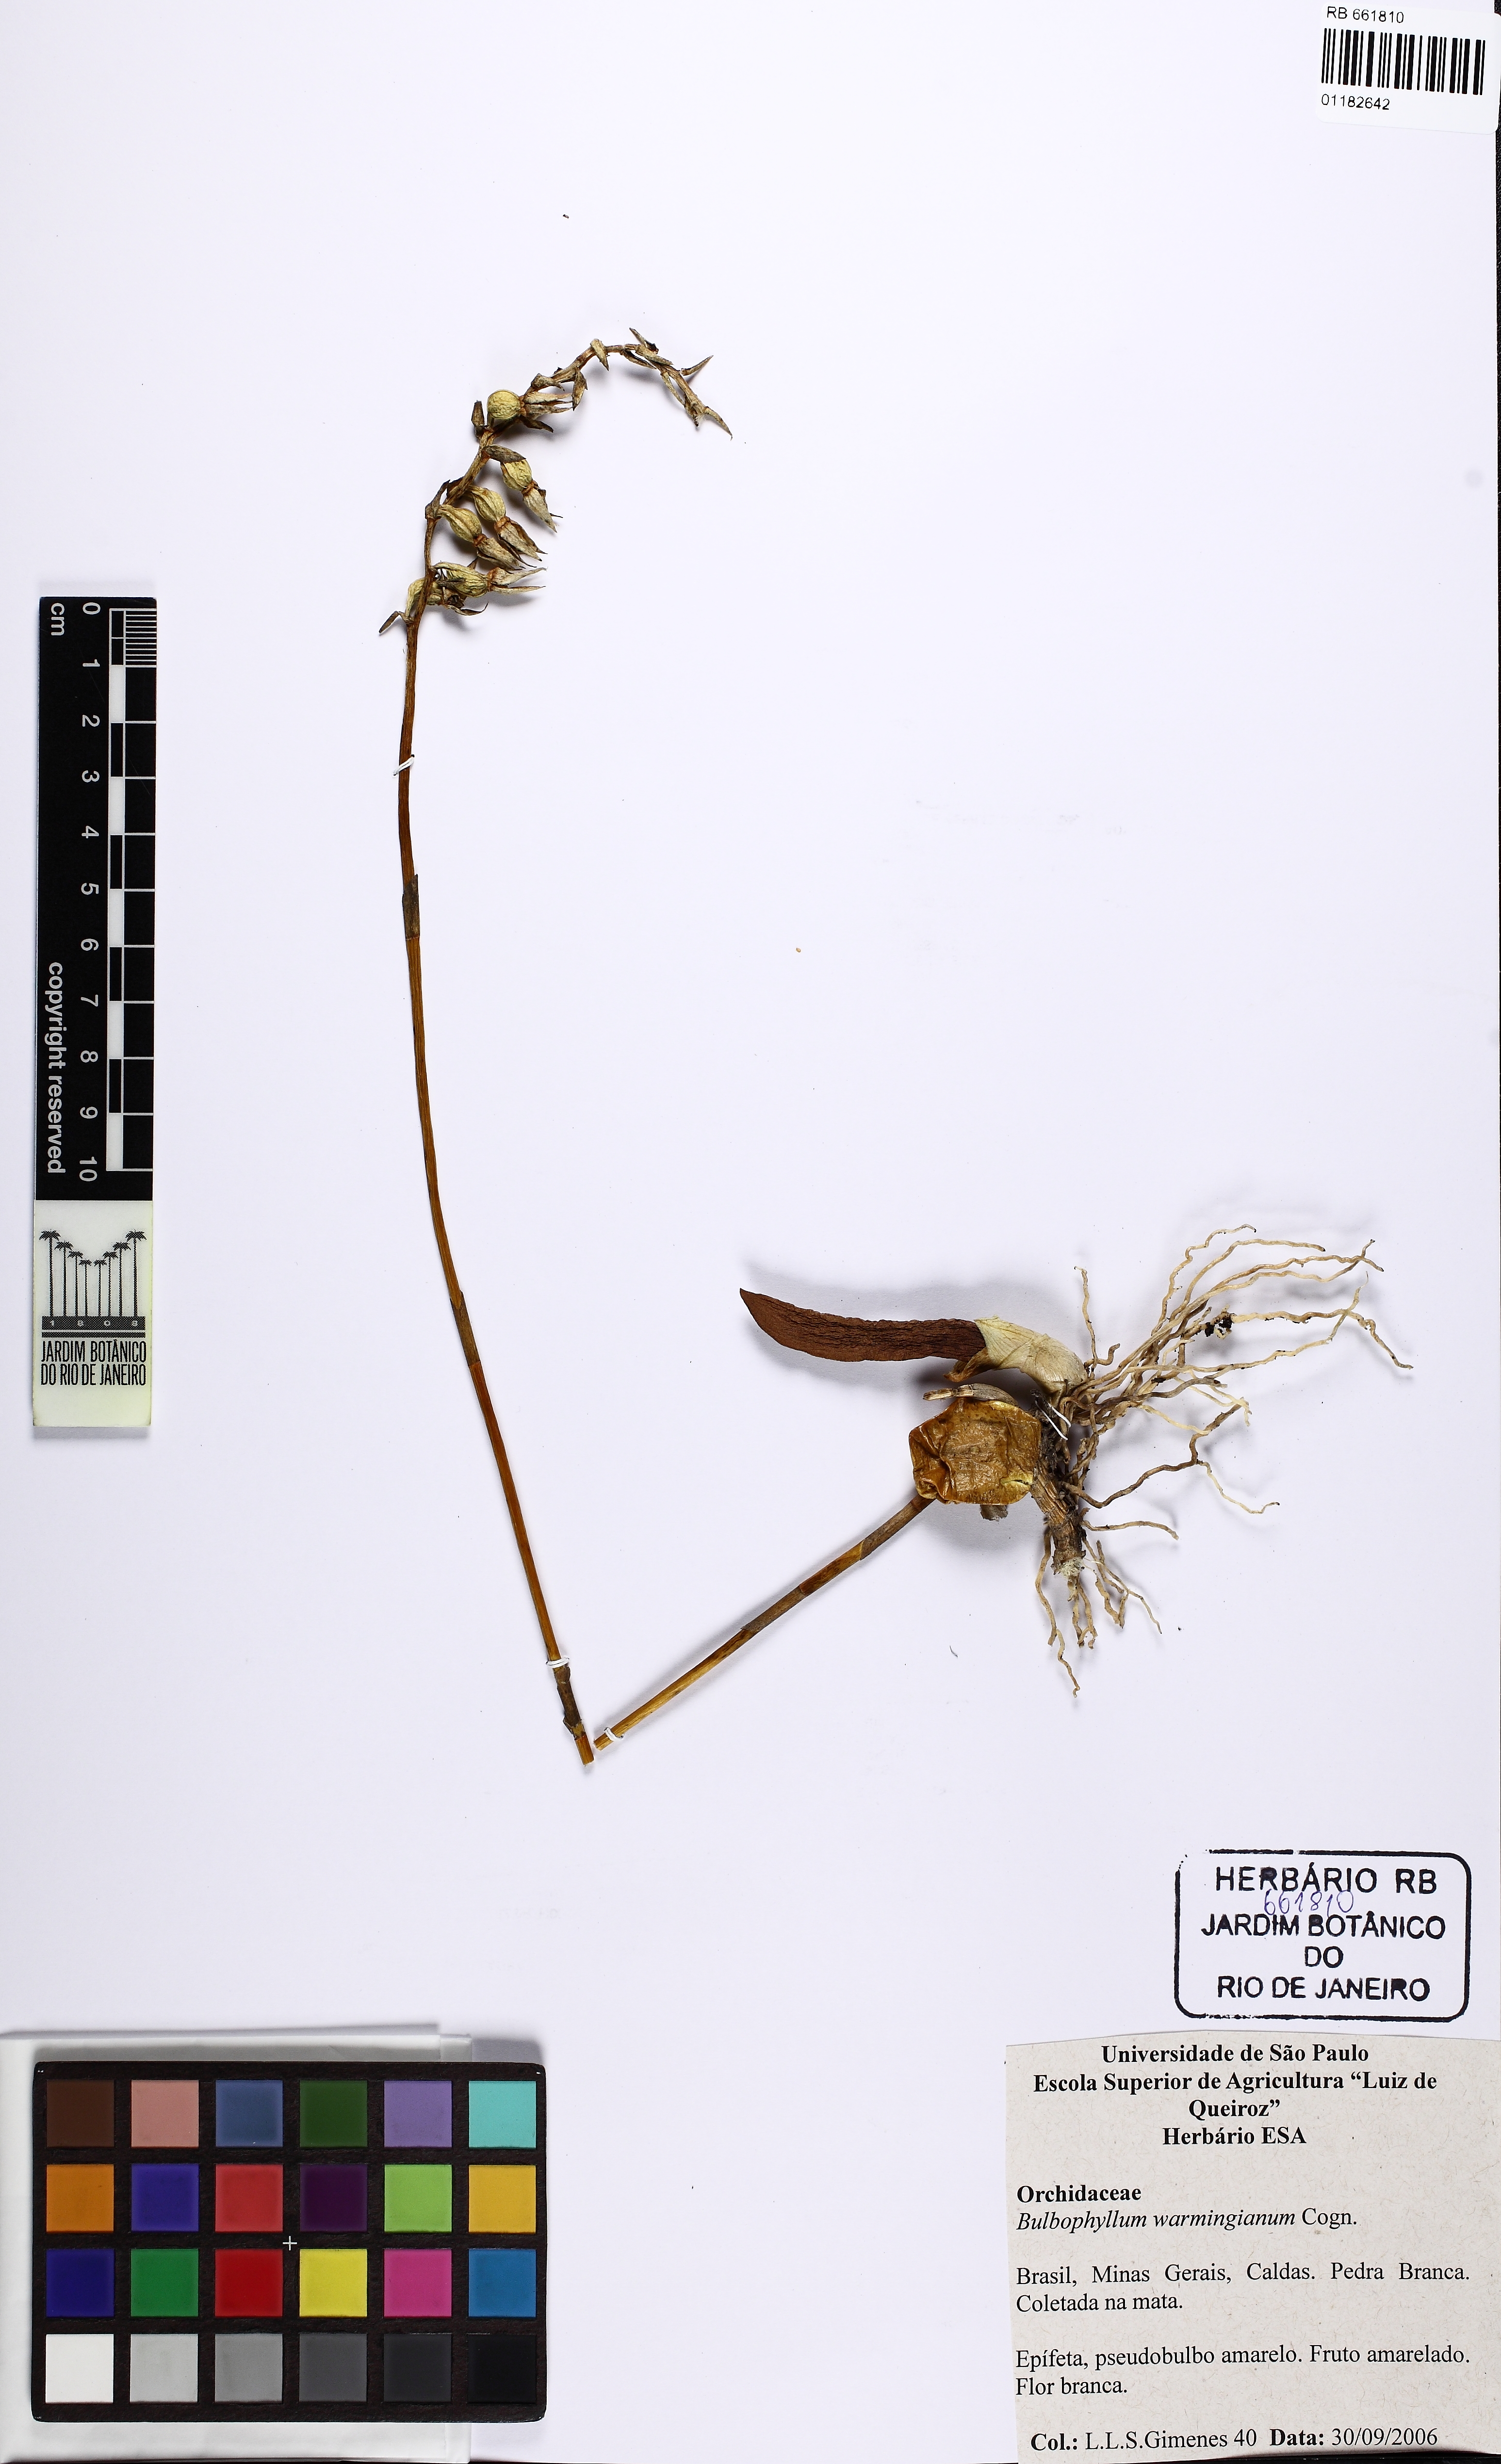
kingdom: Plantae
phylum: Tracheophyta
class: Liliopsida
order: Asparagales
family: Orchidaceae
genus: Bulbophyllum
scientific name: Bulbophyllum exaltatum
